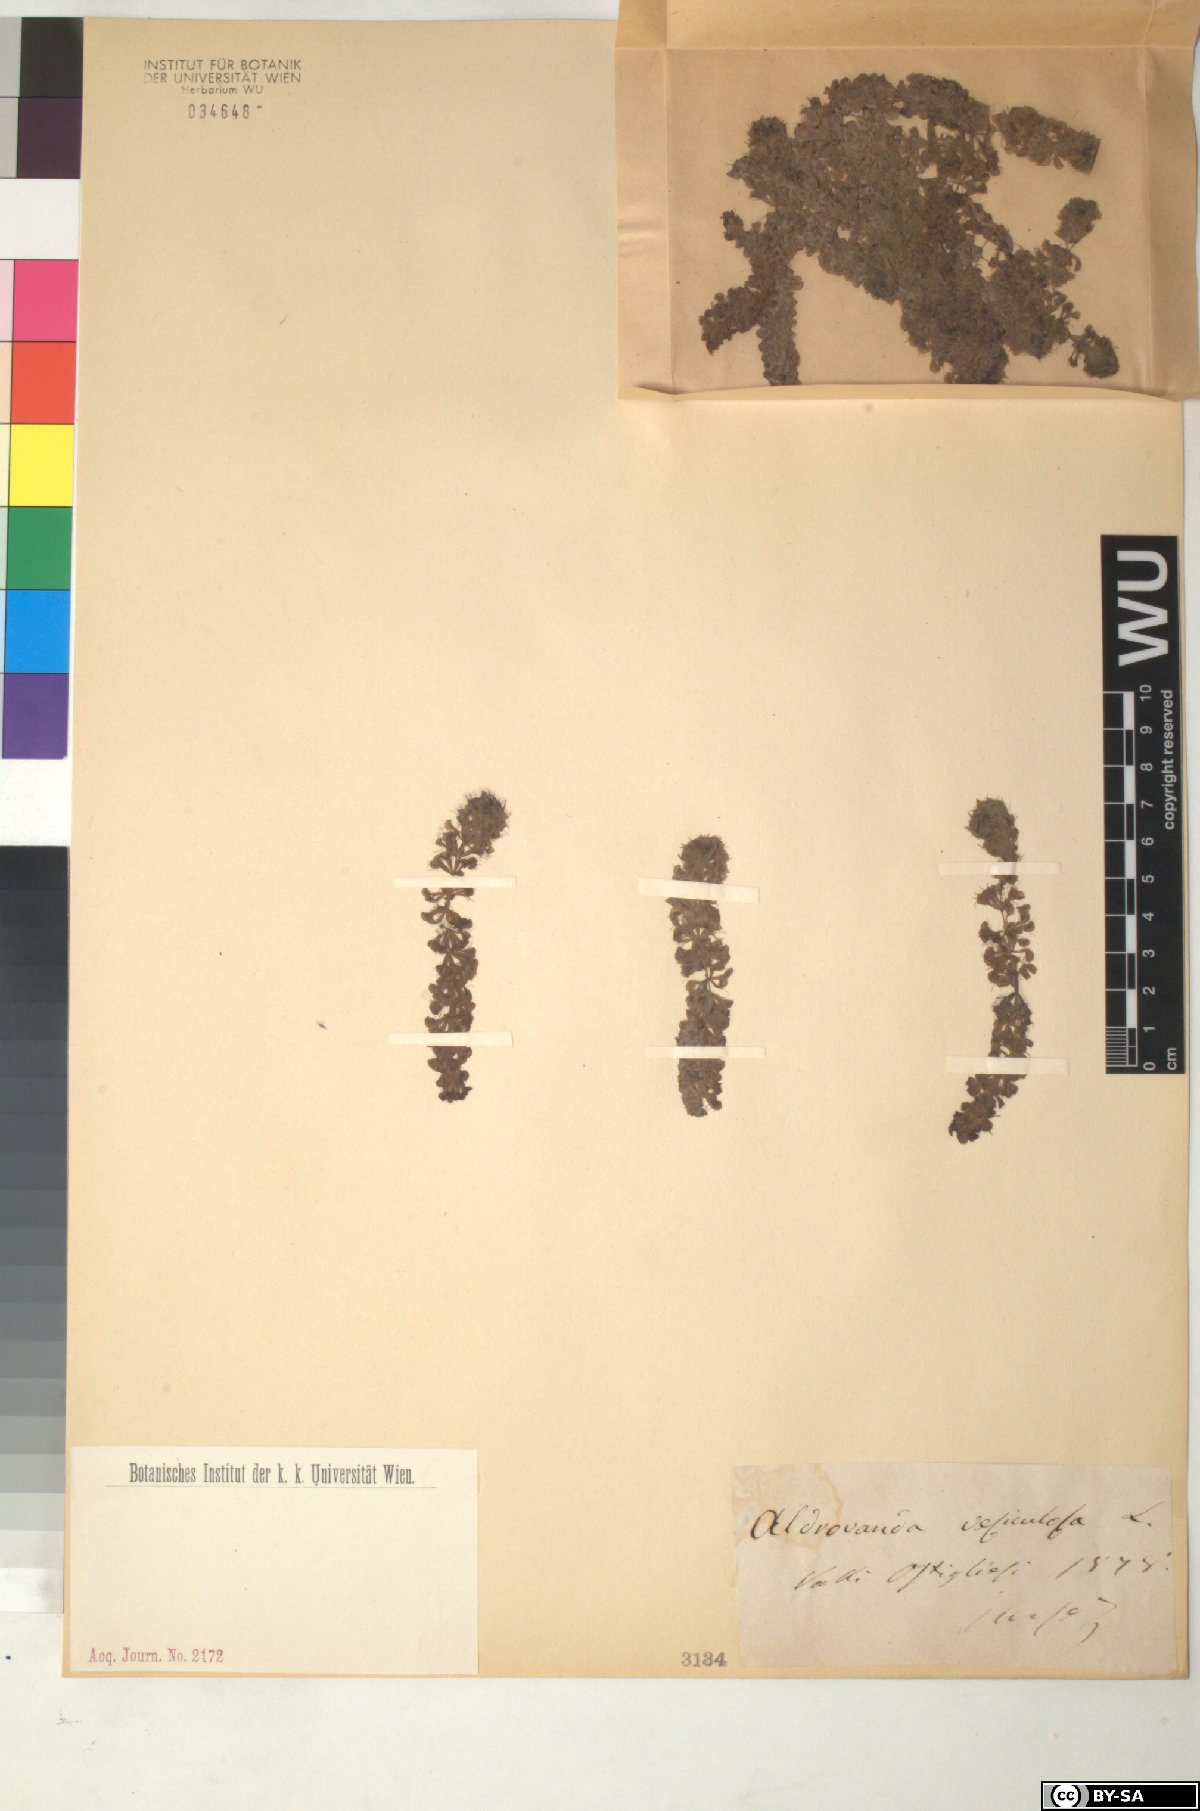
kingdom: Plantae
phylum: Tracheophyta
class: Magnoliopsida
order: Caryophyllales
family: Droseraceae
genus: Aldrovanda
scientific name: Aldrovanda vesiculosa
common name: Waterwheel plant
